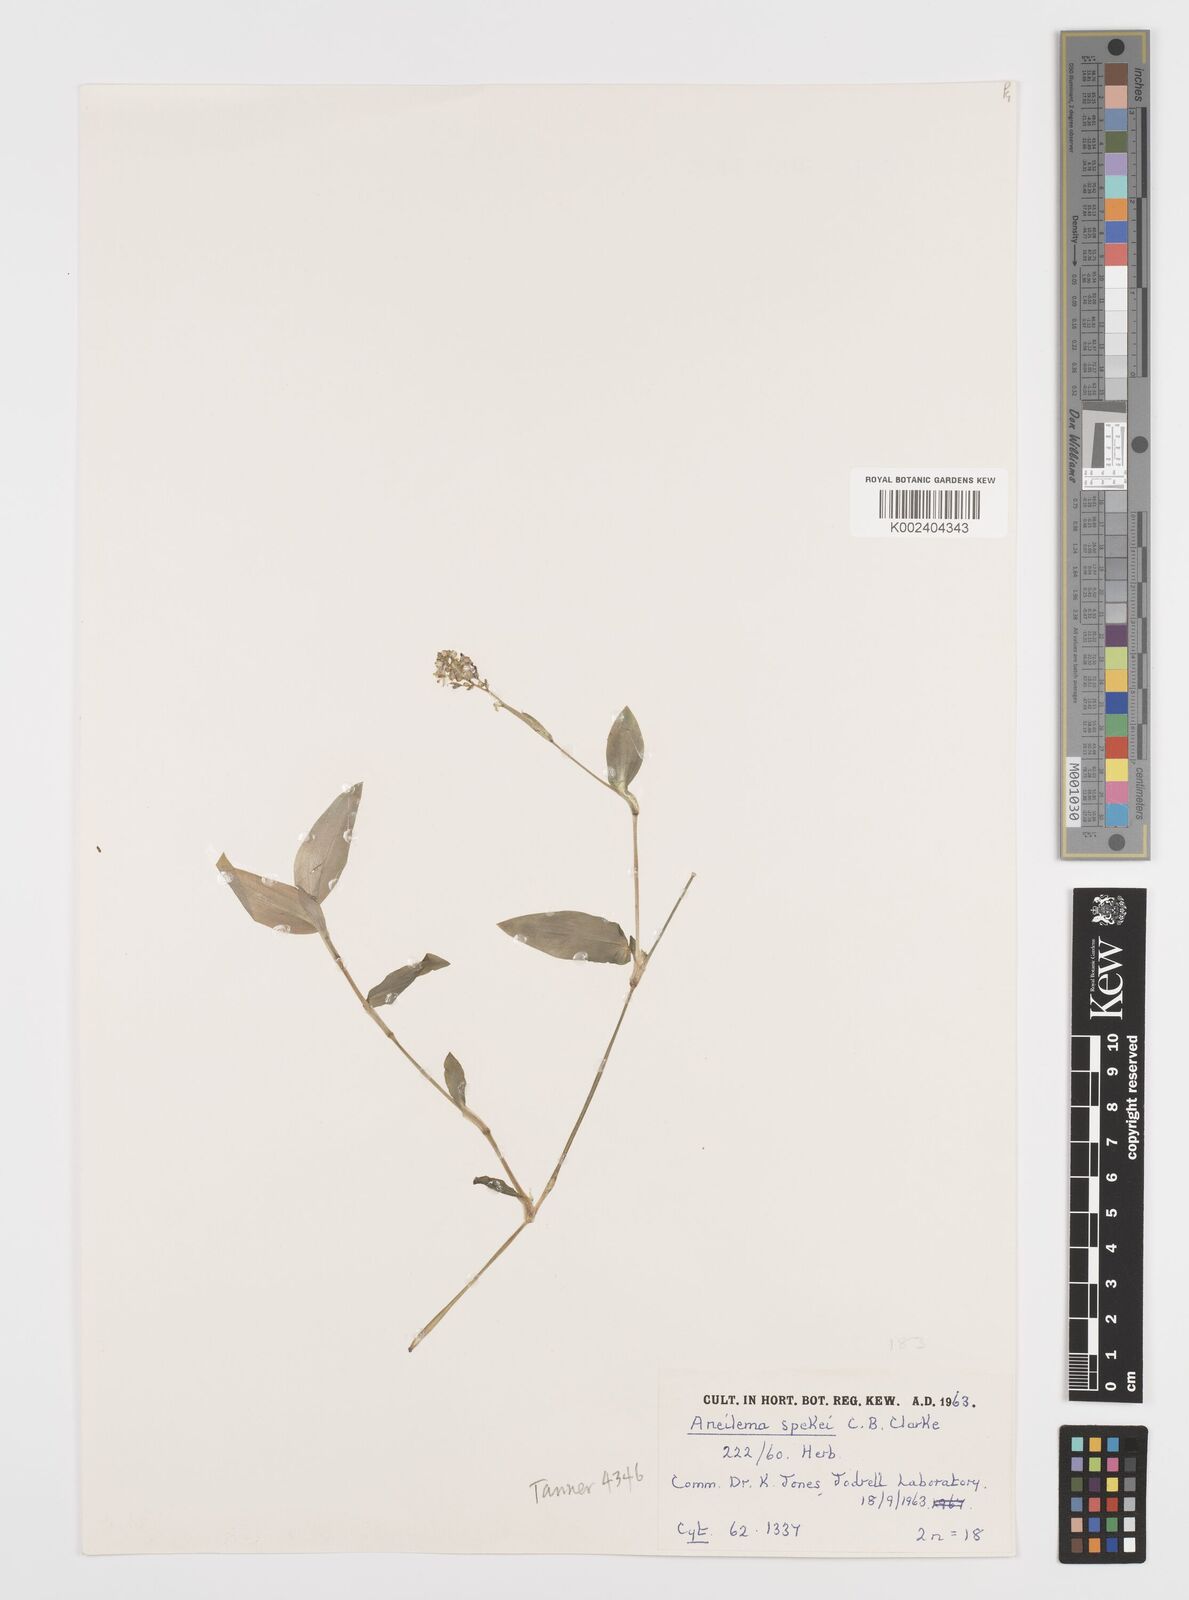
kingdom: Plantae
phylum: Tracheophyta
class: Liliopsida
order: Commelinales
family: Commelinaceae
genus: Aneilema
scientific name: Aneilema spekei
